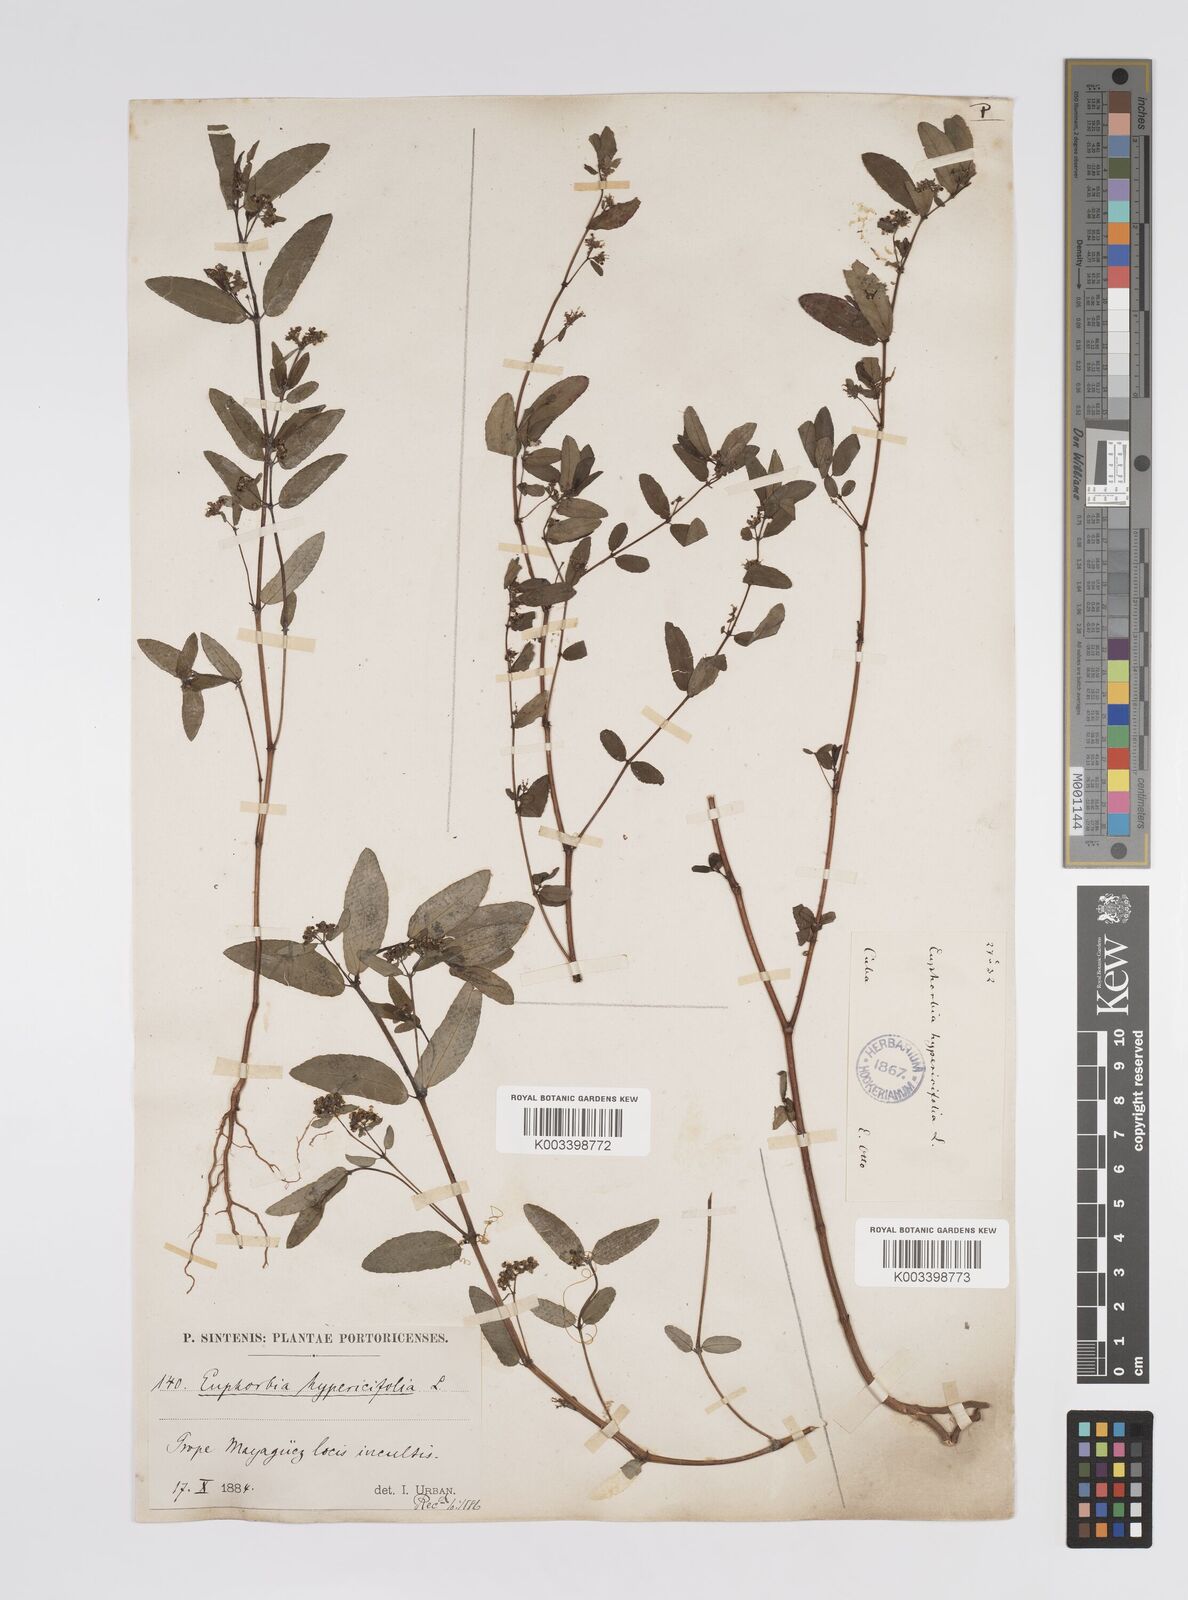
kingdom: Plantae
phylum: Tracheophyta
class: Magnoliopsida
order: Malpighiales
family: Euphorbiaceae
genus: Euphorbia
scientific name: Euphorbia hypericifolia
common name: Graceful sandmat
